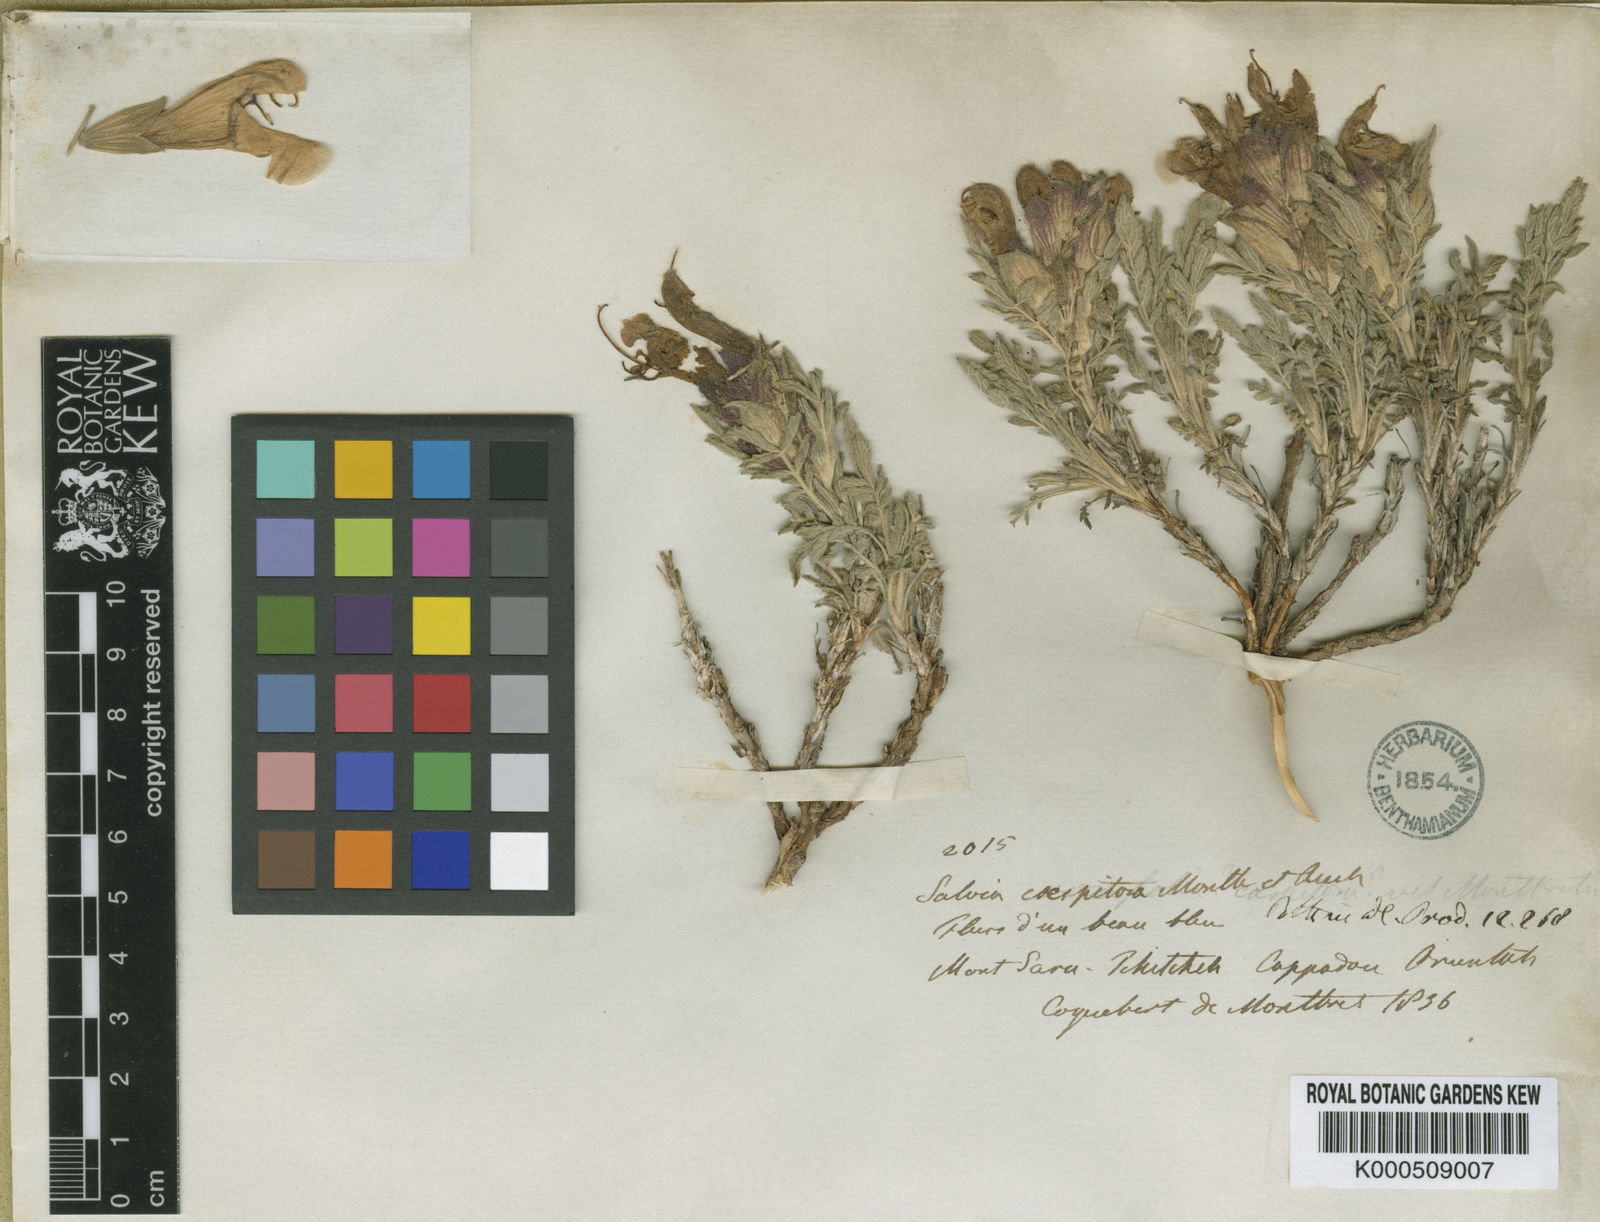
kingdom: Plantae
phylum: Tracheophyta
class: Magnoliopsida
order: Lamiales
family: Lamiaceae
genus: Salvia
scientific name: Salvia
